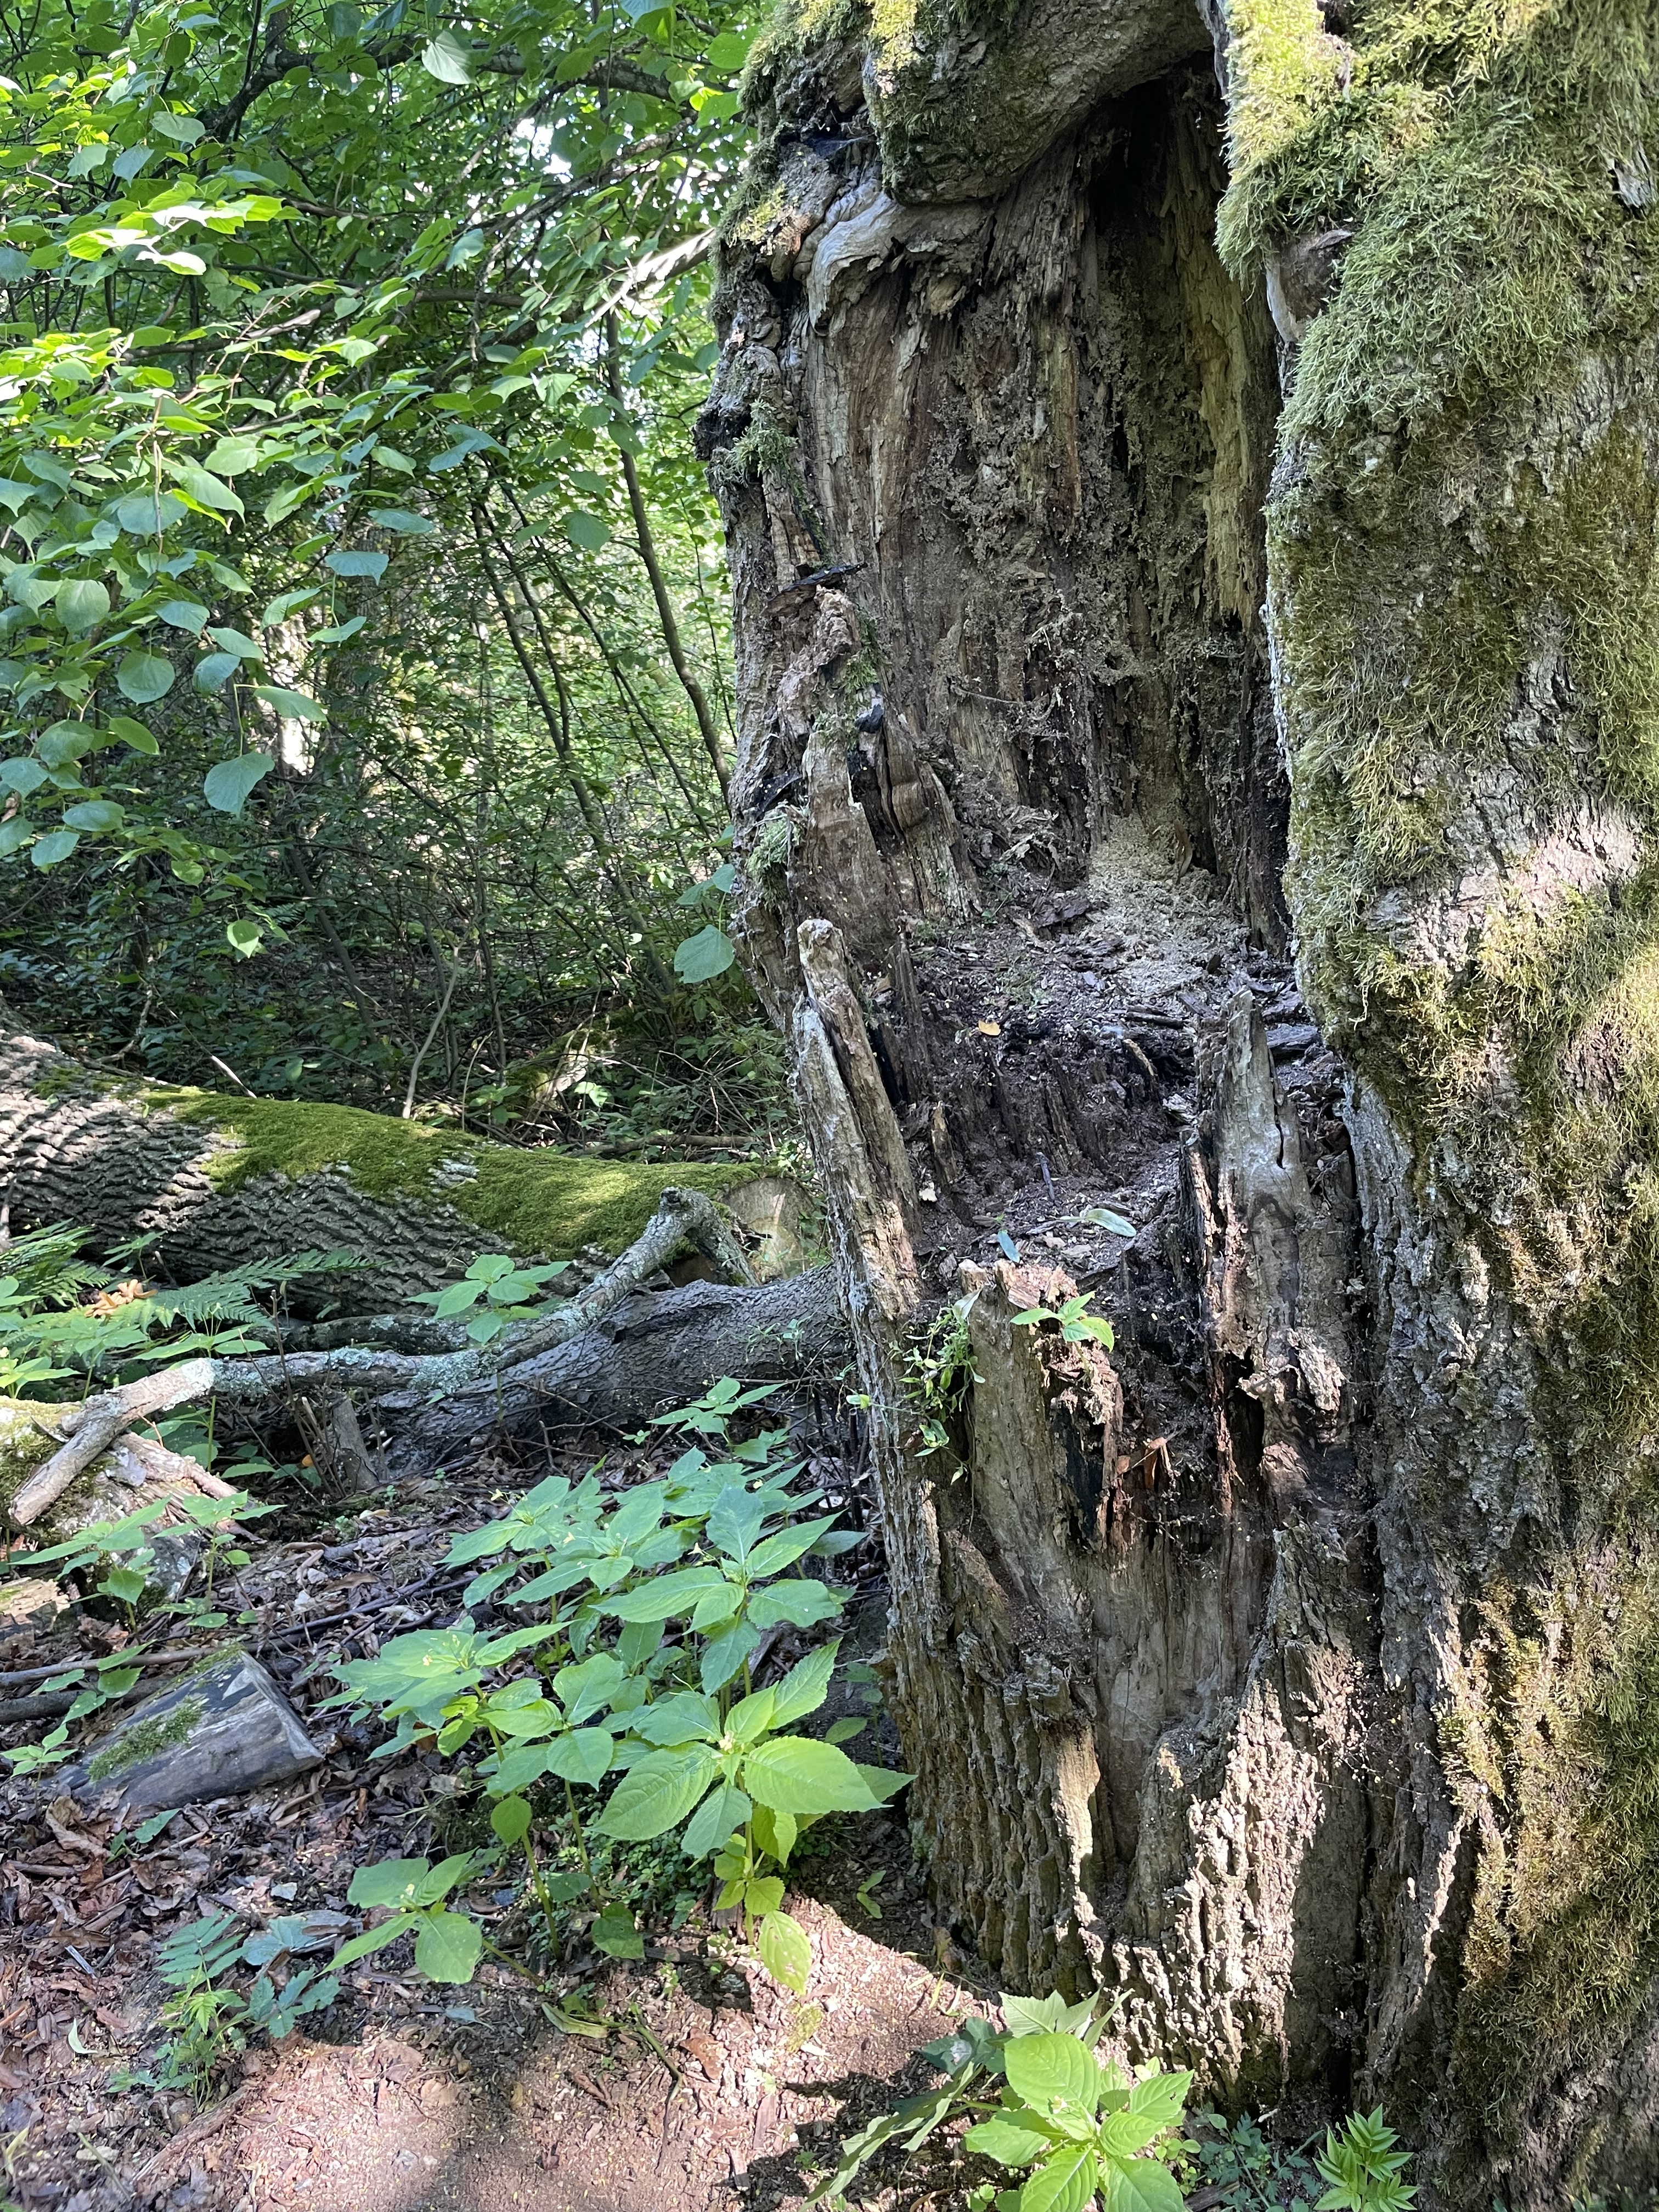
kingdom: Plantae
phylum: Tracheophyta
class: Magnoliopsida
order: Ericales
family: Balsaminaceae
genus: Impatiens
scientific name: Impatiens parviflora
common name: Small balsam
